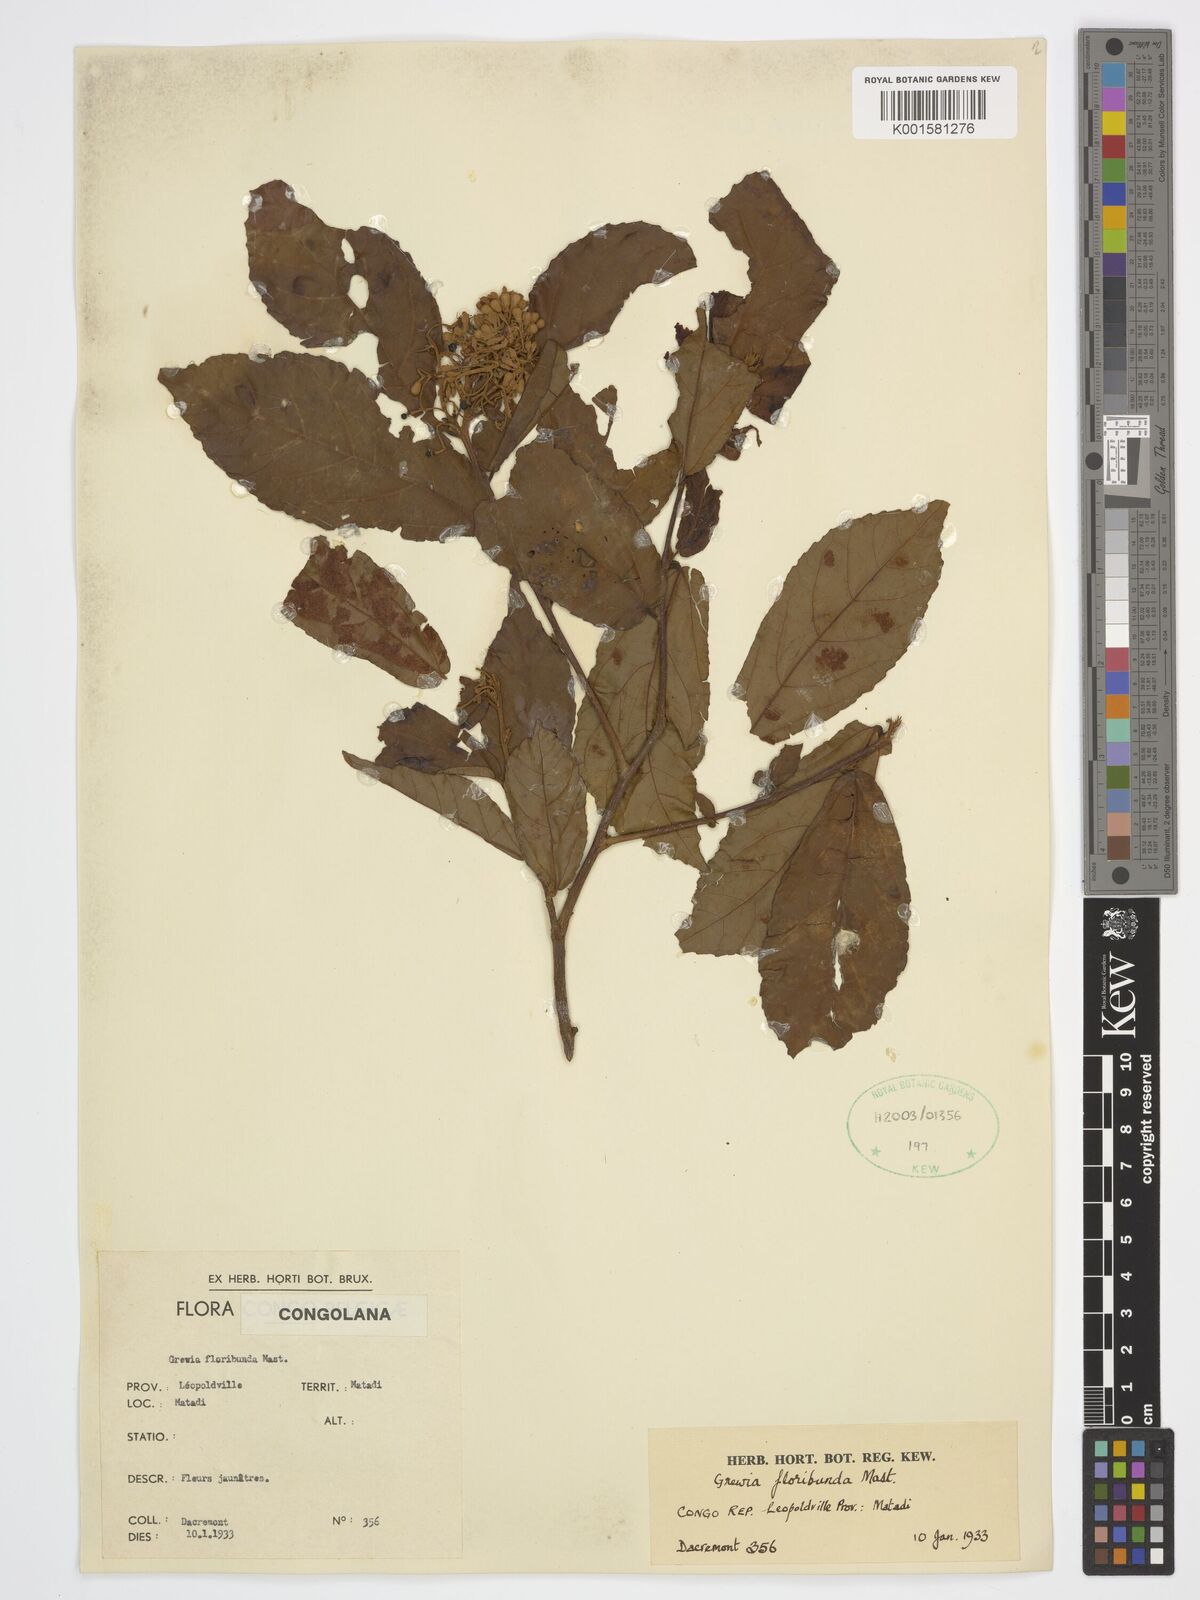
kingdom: Plantae
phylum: Tracheophyta
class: Magnoliopsida
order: Malvales
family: Malvaceae
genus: Microcos
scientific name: Microcos floribunda
